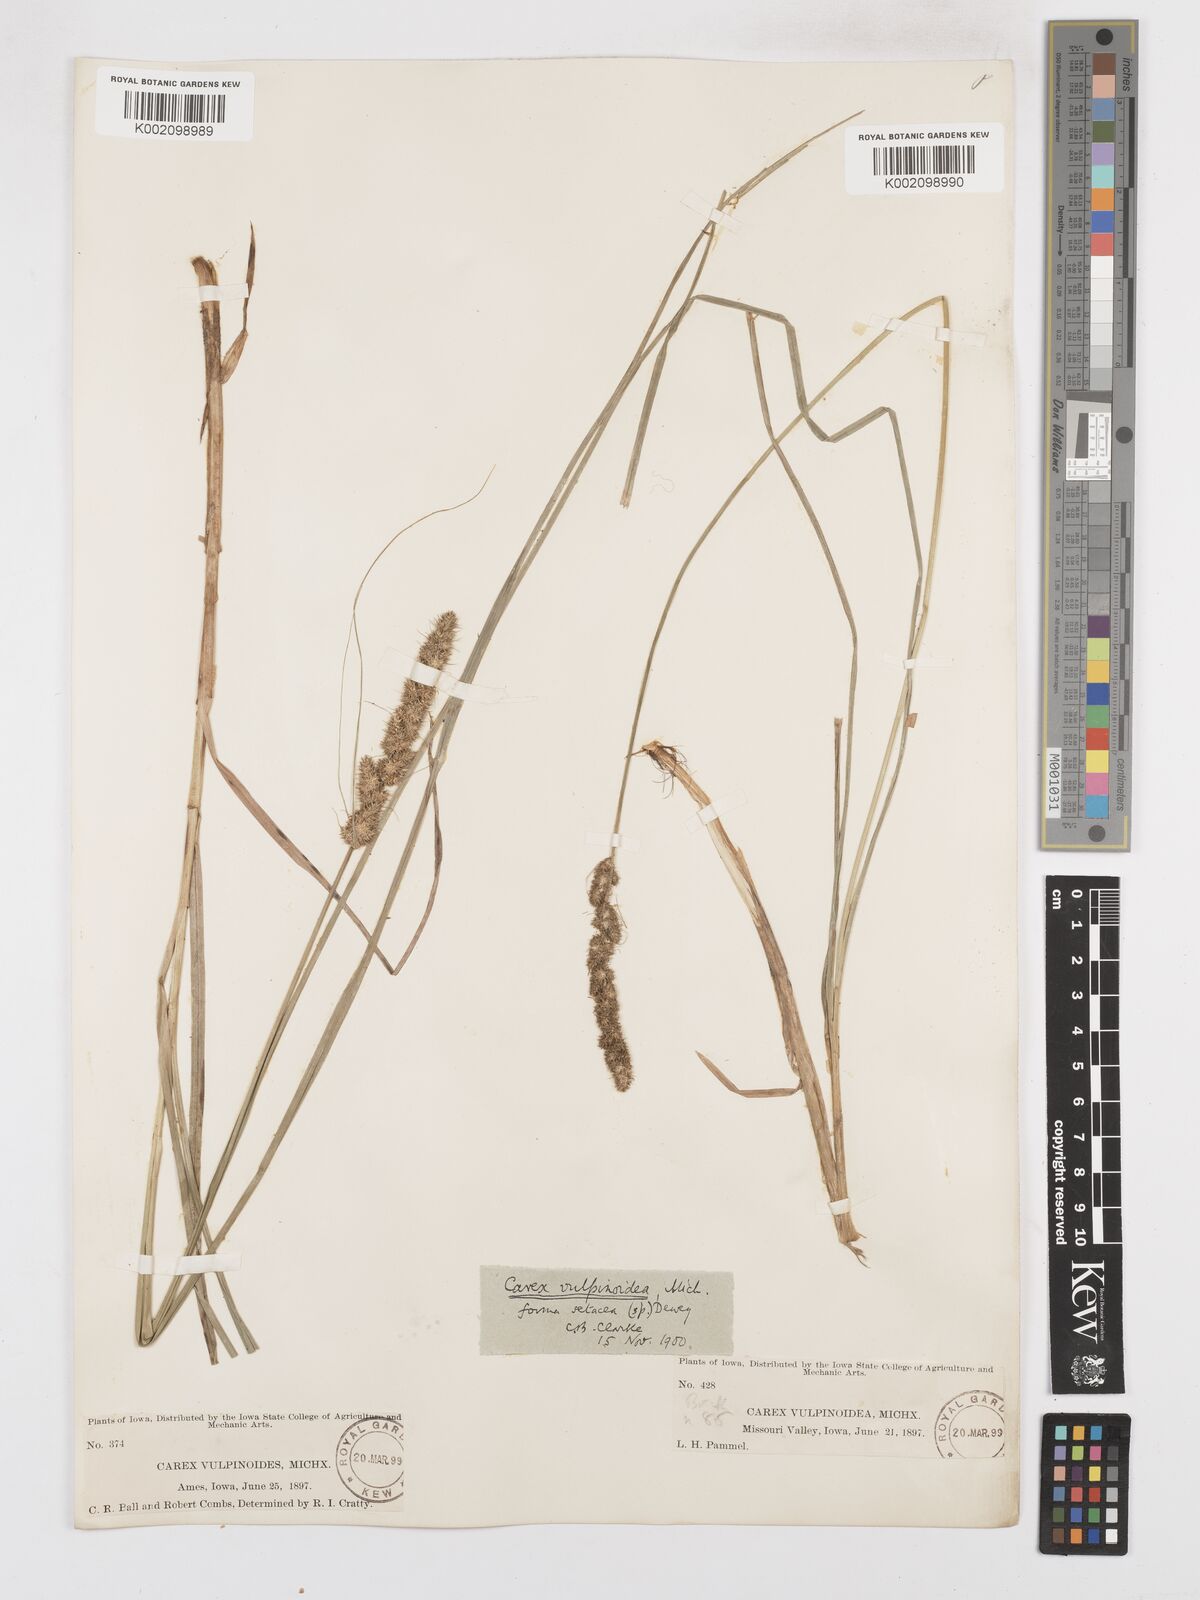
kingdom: Plantae
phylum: Tracheophyta
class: Liliopsida
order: Poales
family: Cyperaceae
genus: Carex
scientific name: Carex vulpinoidea
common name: American fox-sedge
